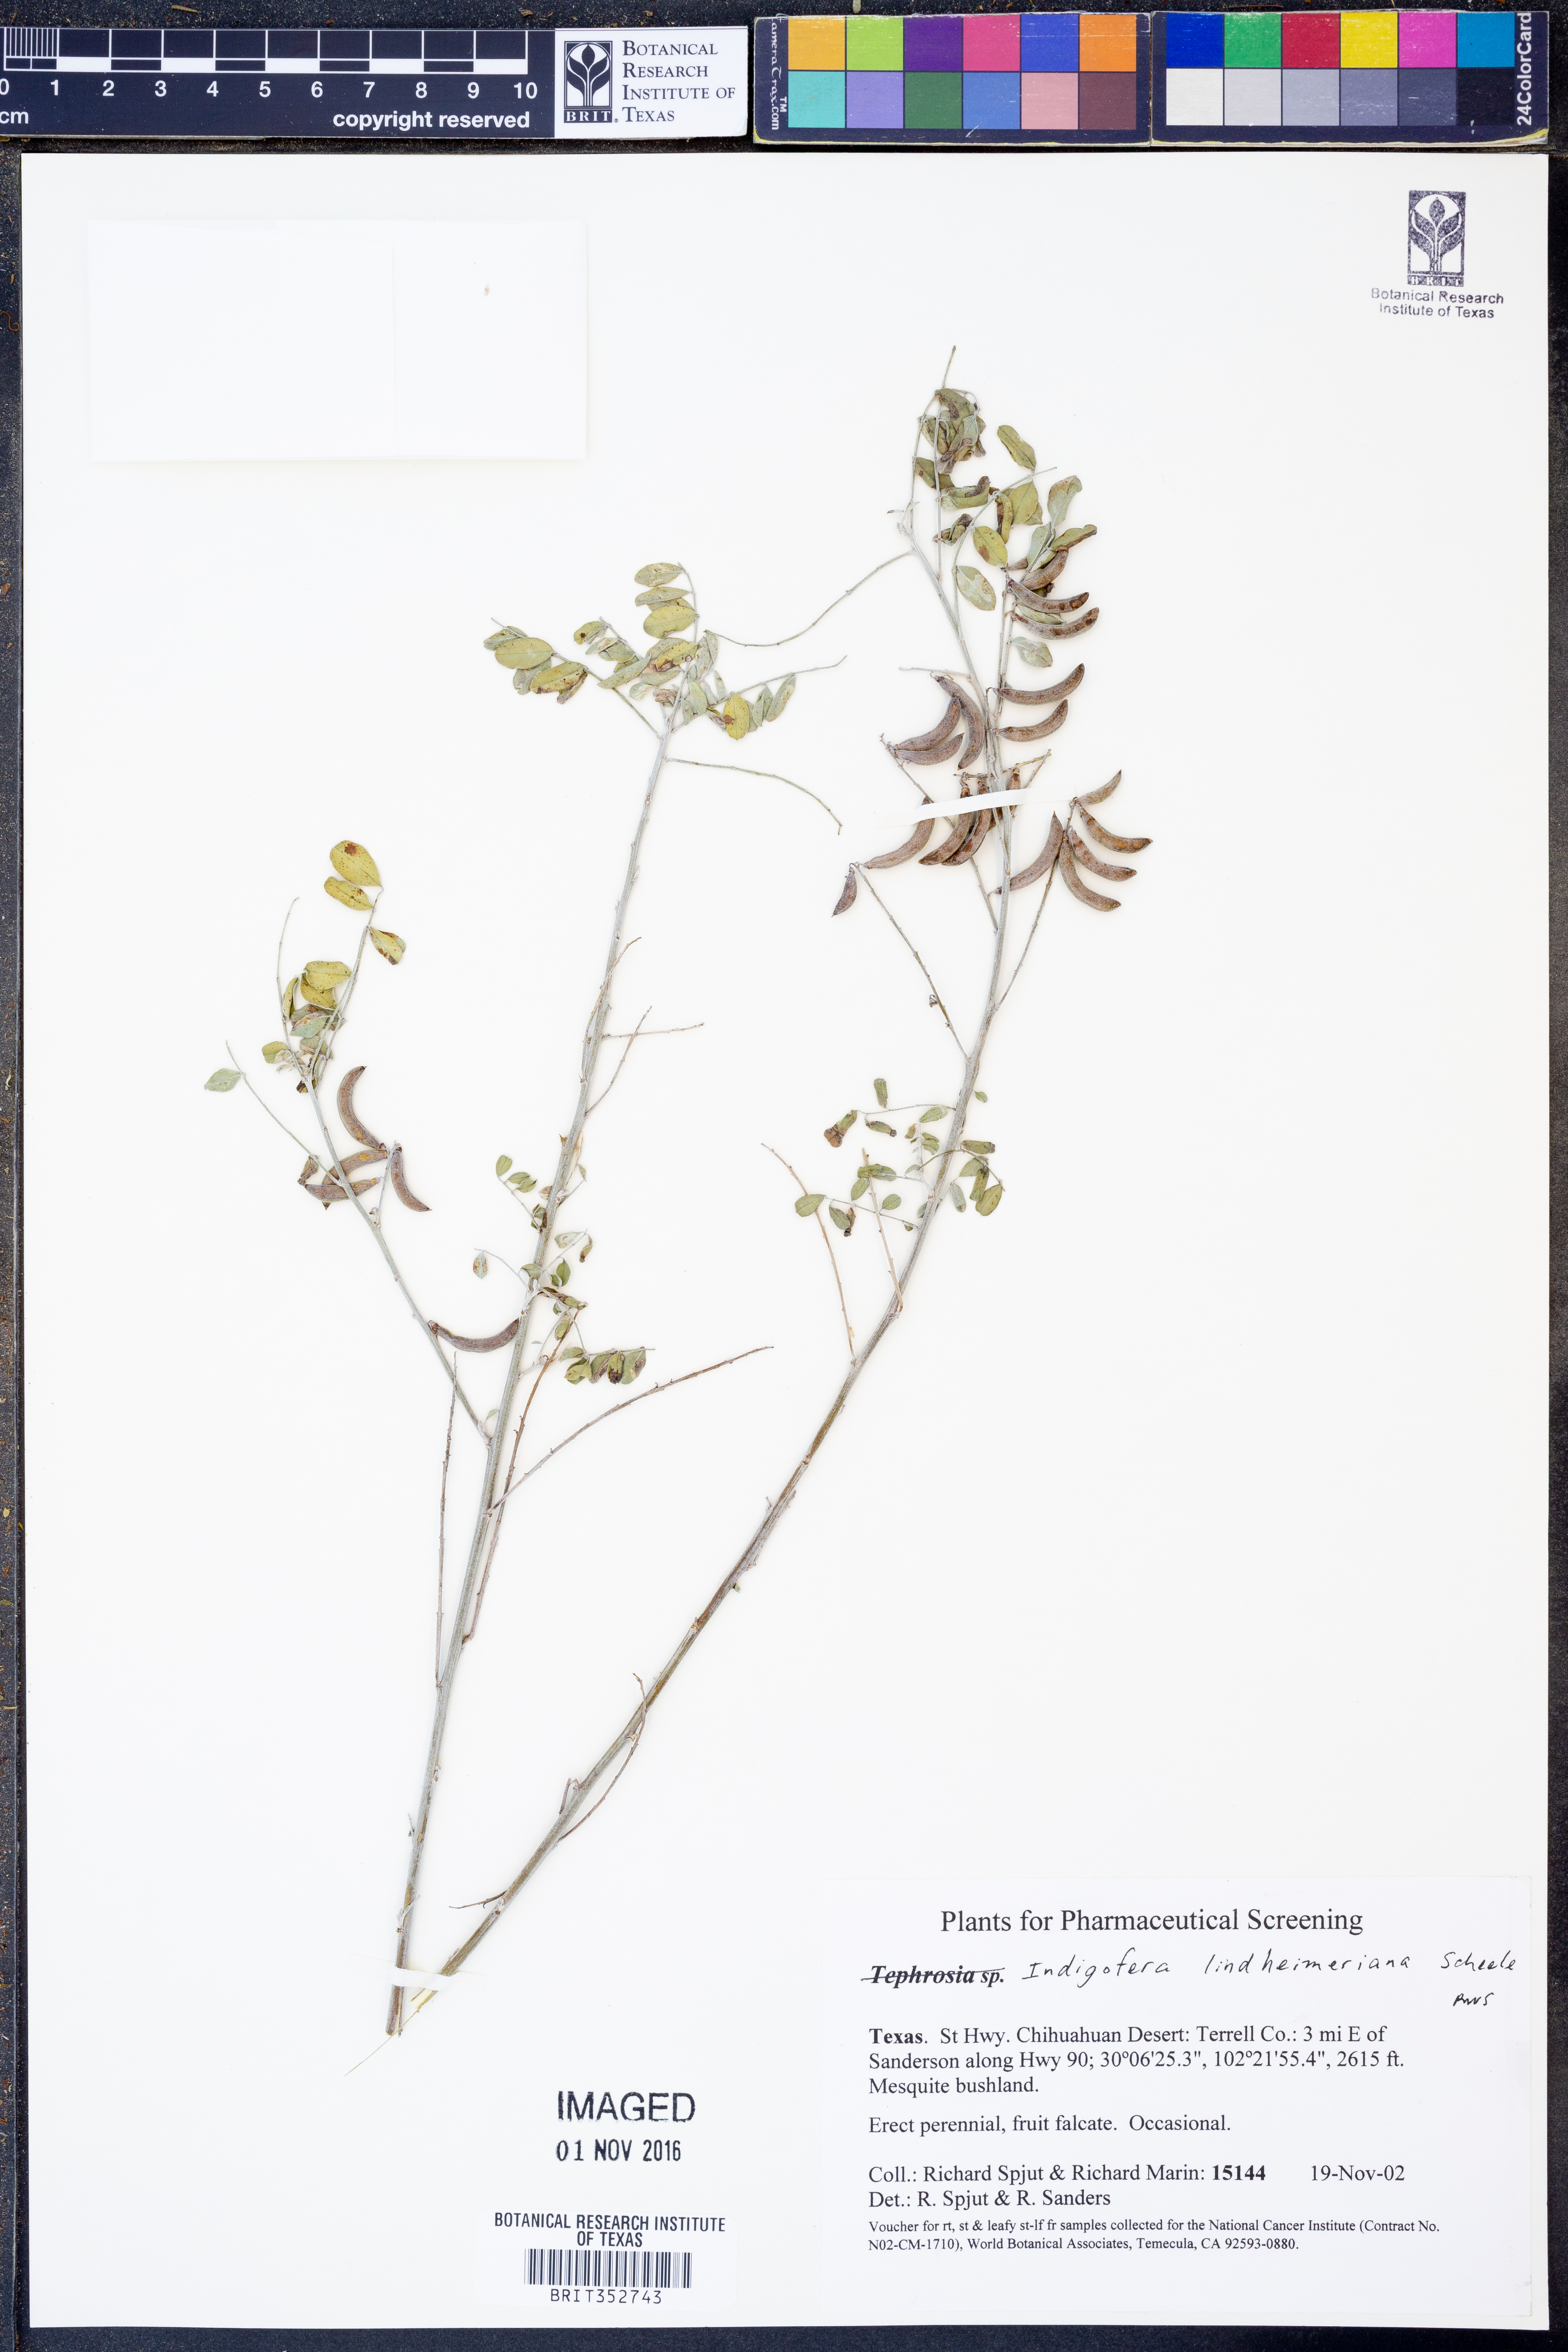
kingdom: Plantae
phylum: Tracheophyta
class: Magnoliopsida
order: Fabales
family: Fabaceae
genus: Indigofera
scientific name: Indigofera lindheimeriana
